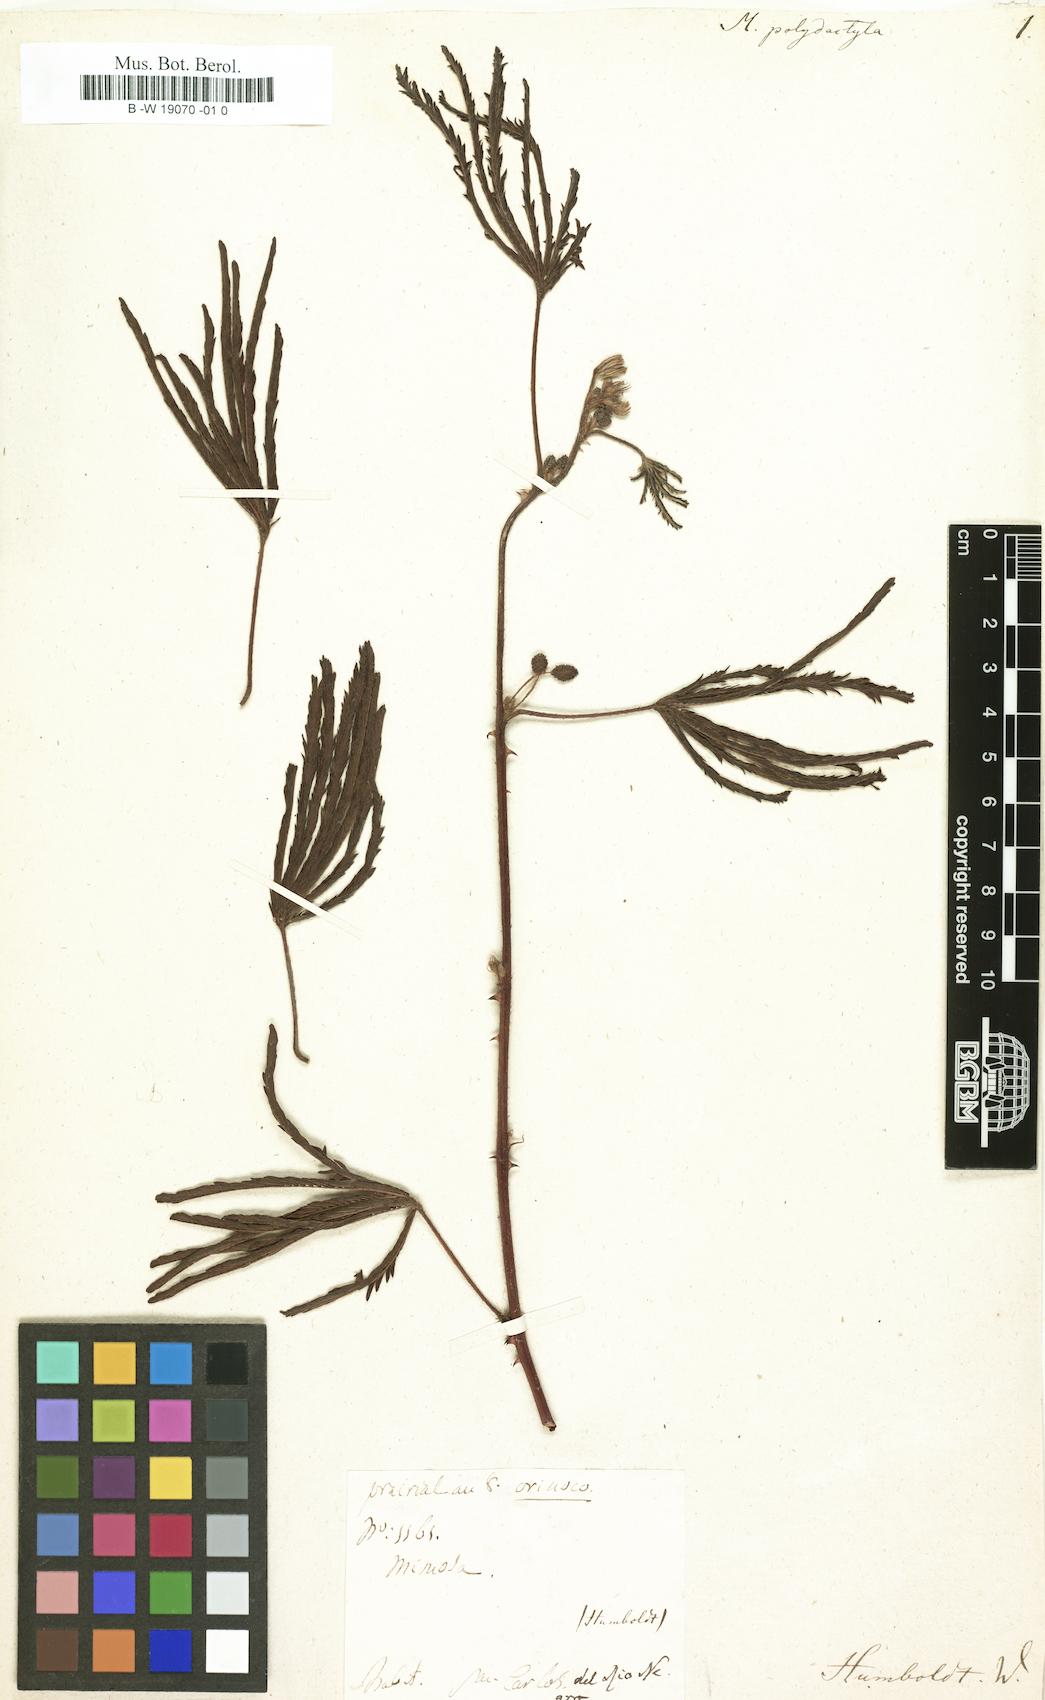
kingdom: Plantae
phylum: Tracheophyta
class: Magnoliopsida
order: Fabales
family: Fabaceae
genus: Mimosa
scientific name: Mimosa polydactyla
